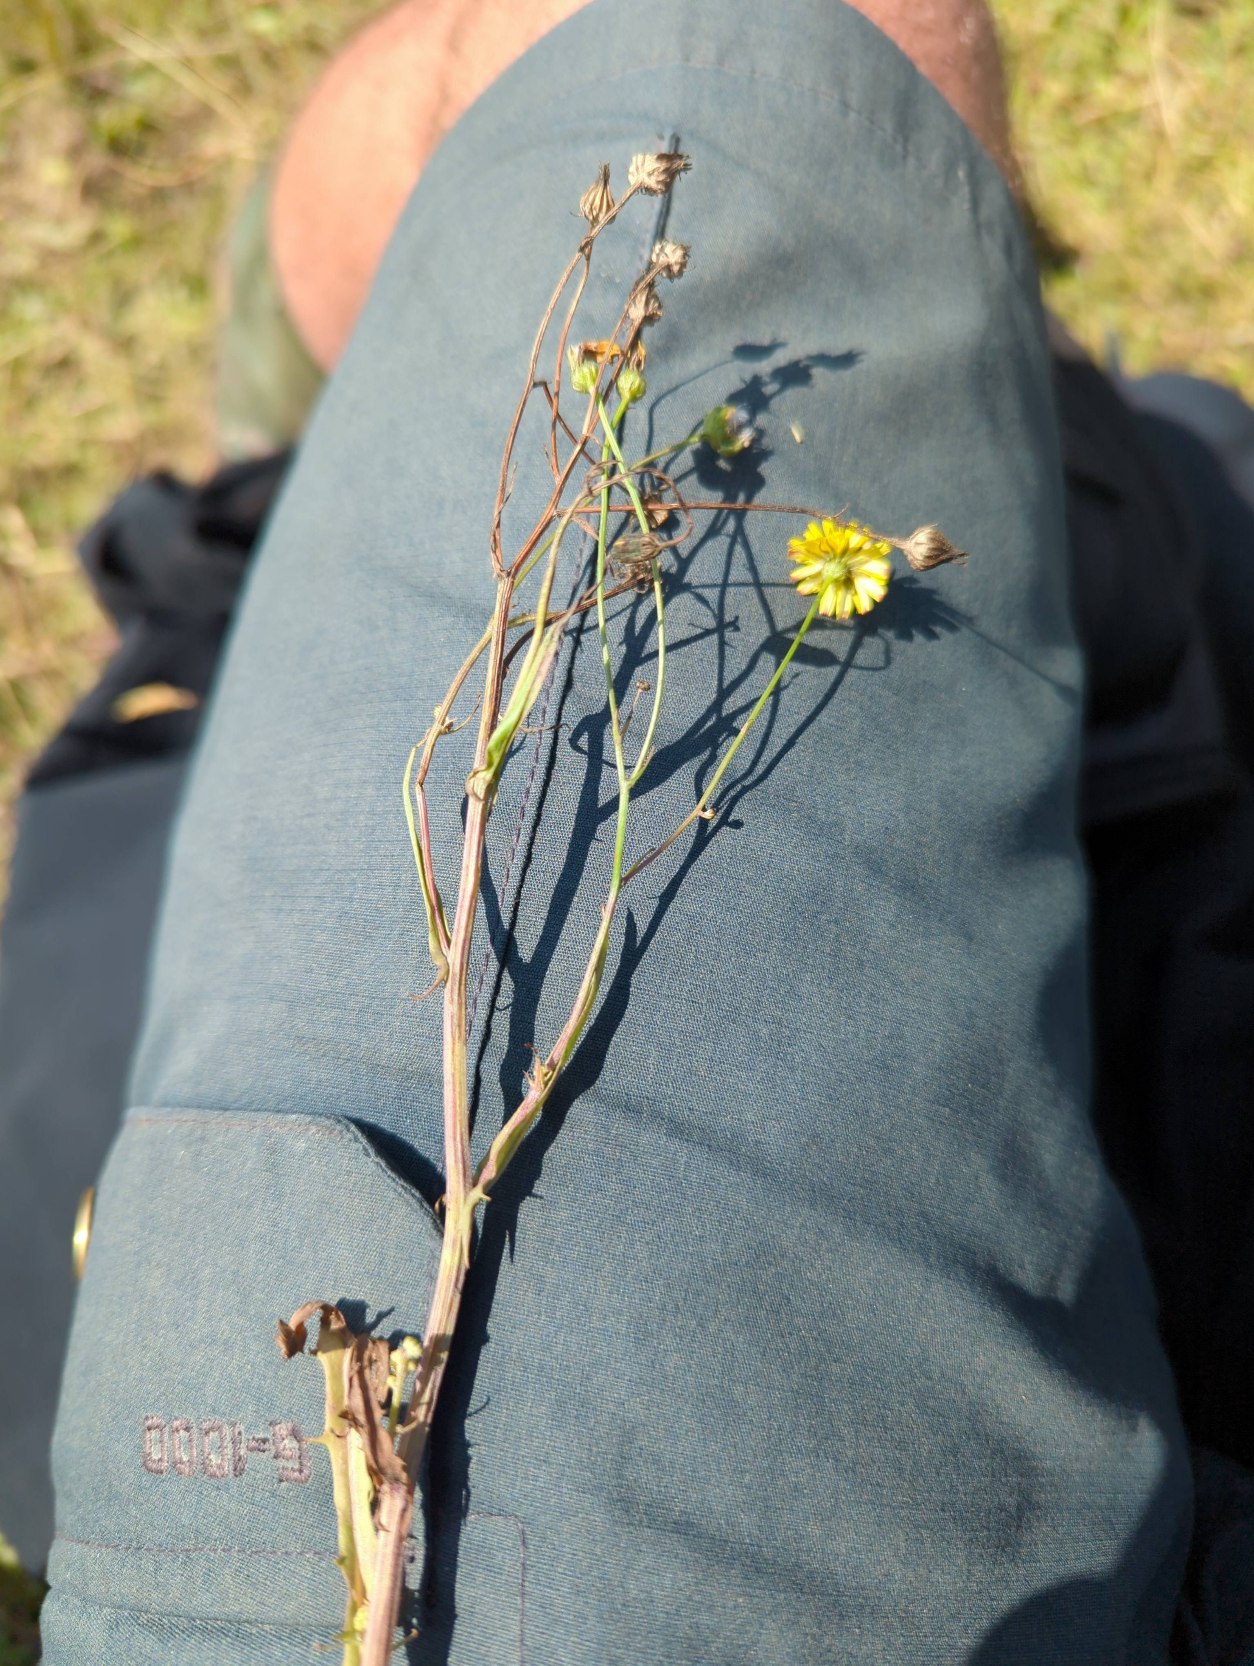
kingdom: Plantae
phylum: Tracheophyta
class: Magnoliopsida
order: Asterales
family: Asteraceae
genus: Crepis
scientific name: Crepis capillaris
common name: Grøn høgeskæg
